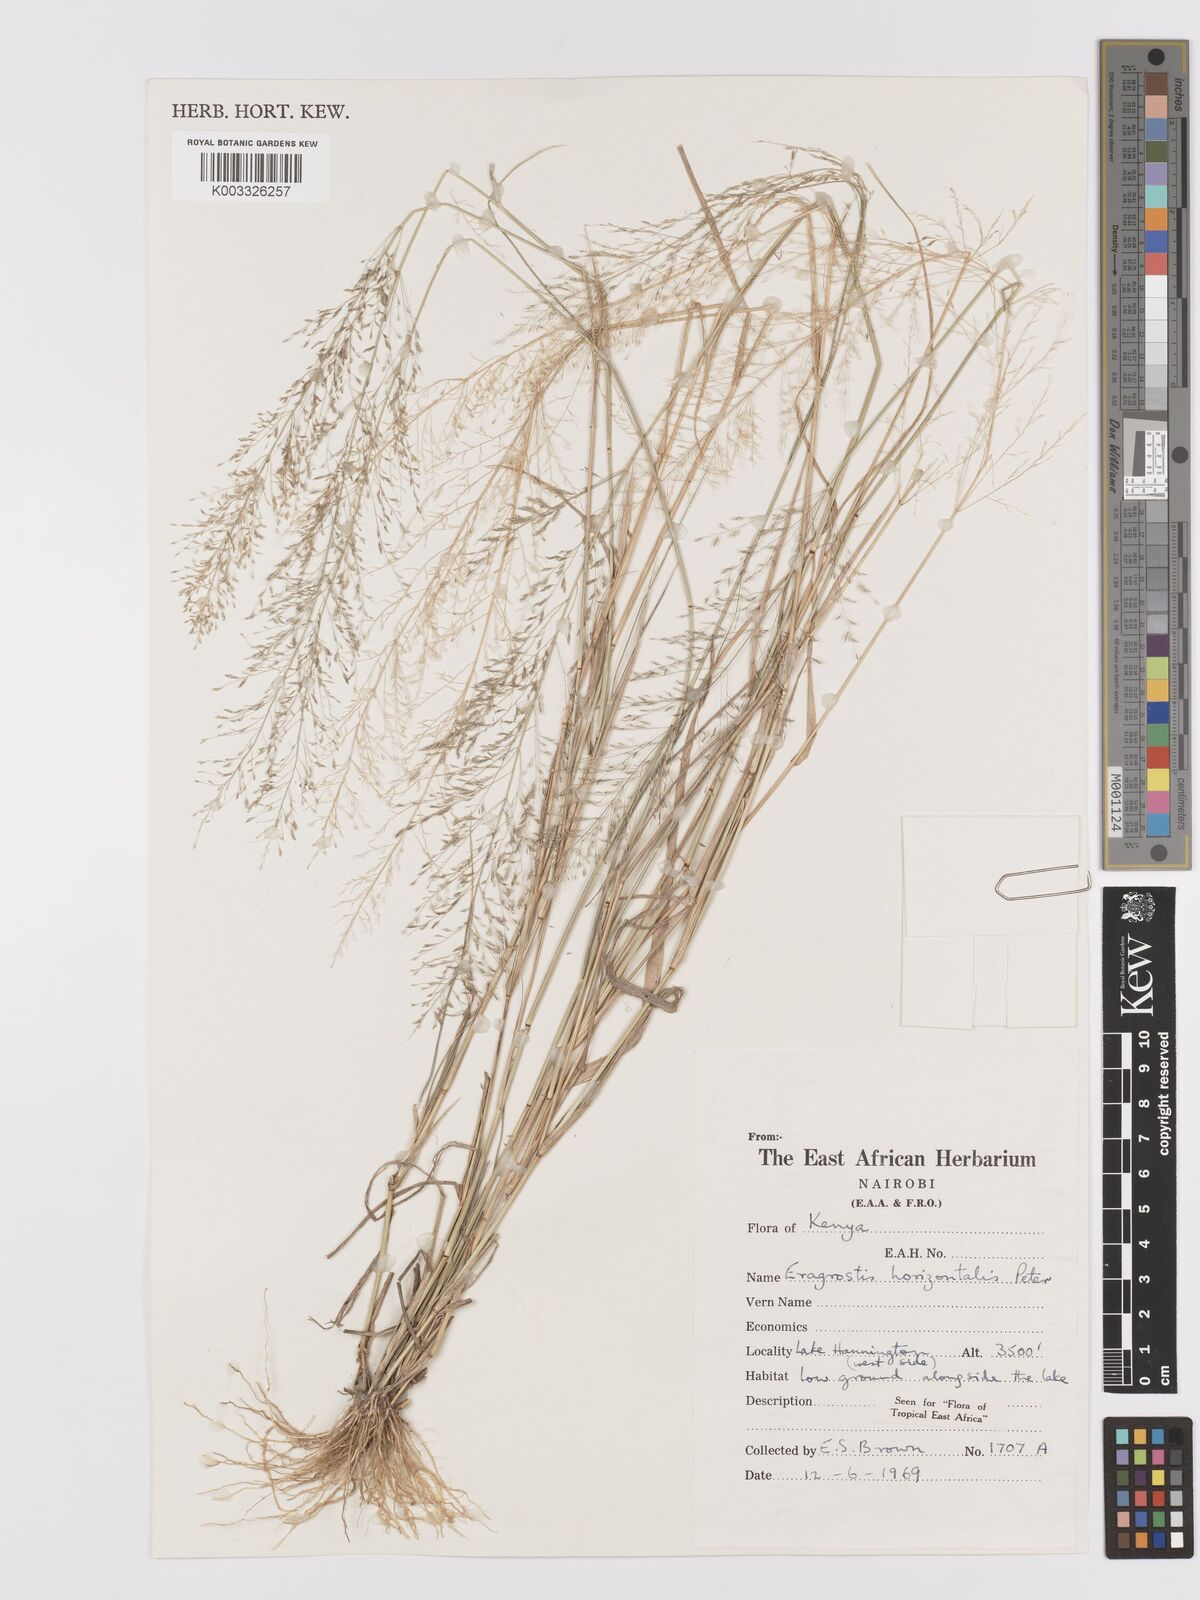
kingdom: Plantae
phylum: Tracheophyta
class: Liliopsida
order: Poales
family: Poaceae
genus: Eragrostis
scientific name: Eragrostis cylindriflora
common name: Cylinderflower lovegrass
